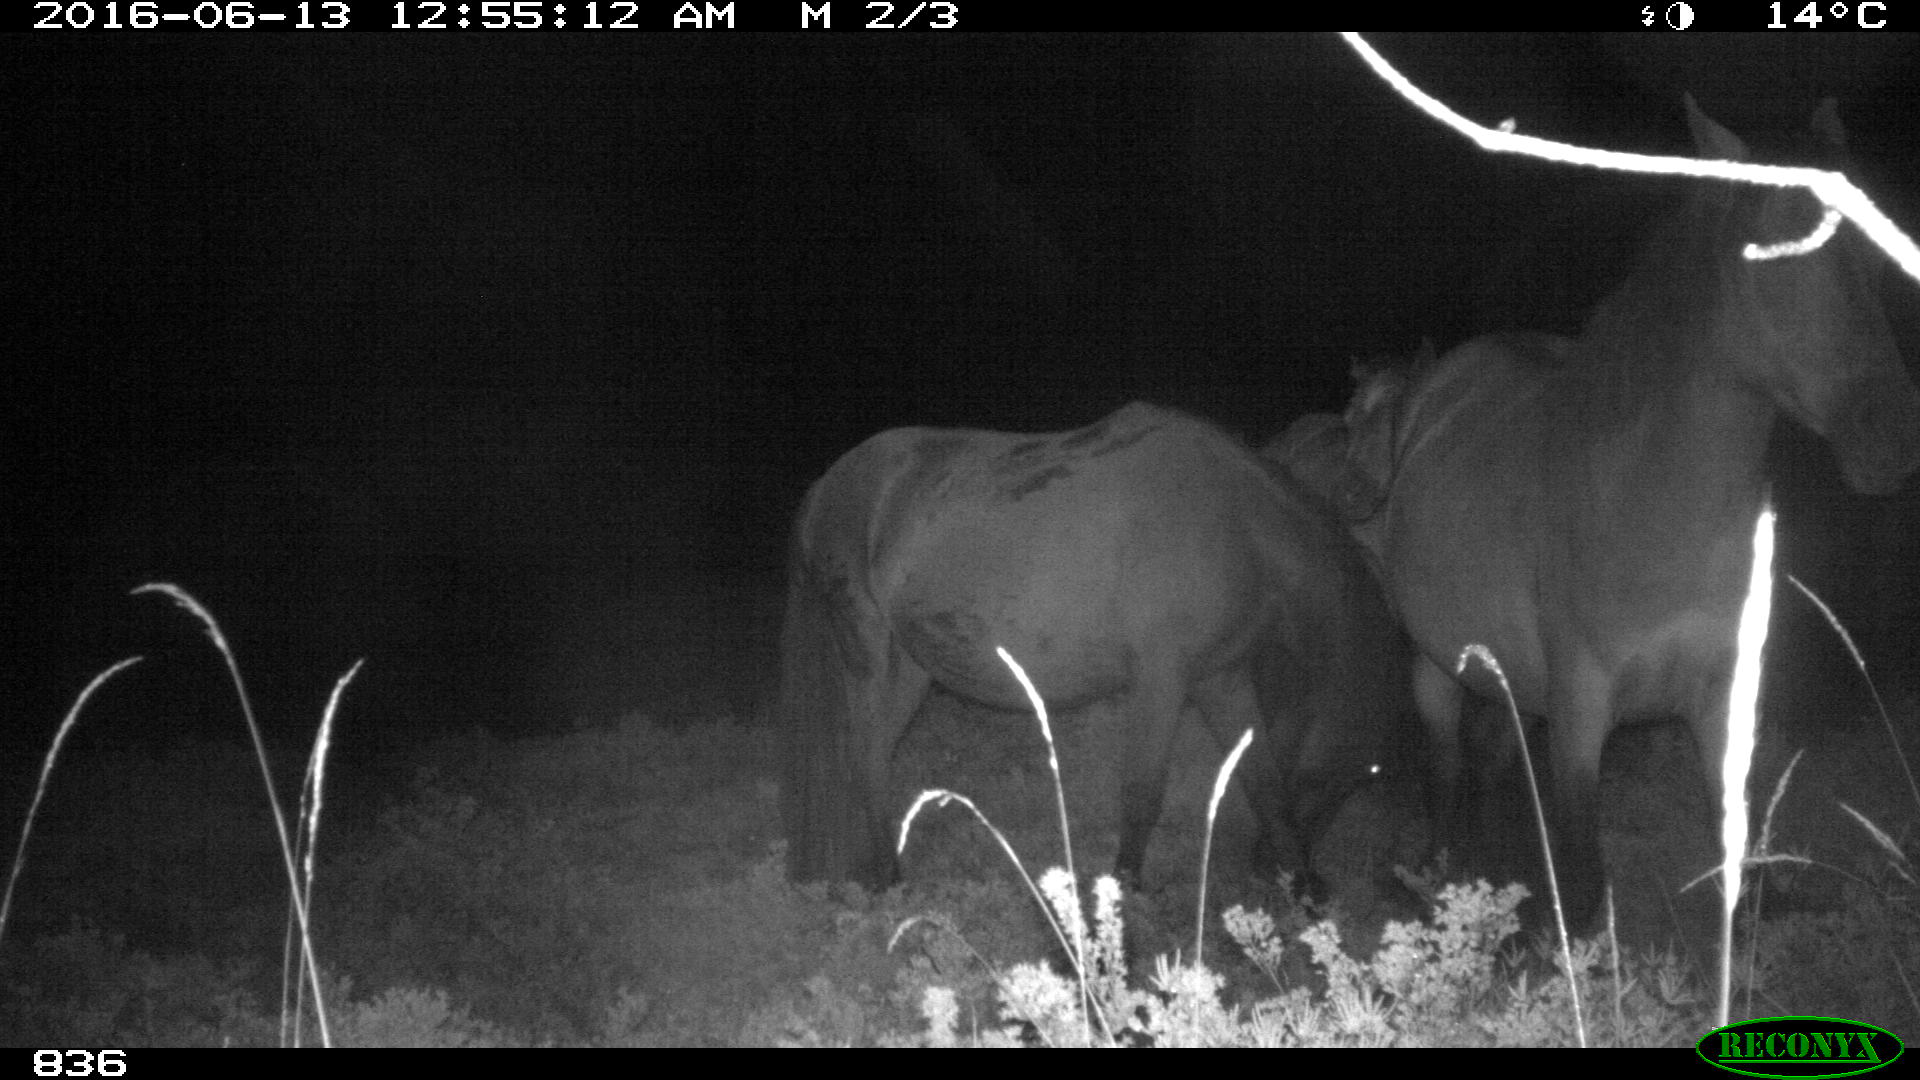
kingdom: Animalia
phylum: Chordata
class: Mammalia
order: Perissodactyla
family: Equidae
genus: Equus
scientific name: Equus caballus
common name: Horse
